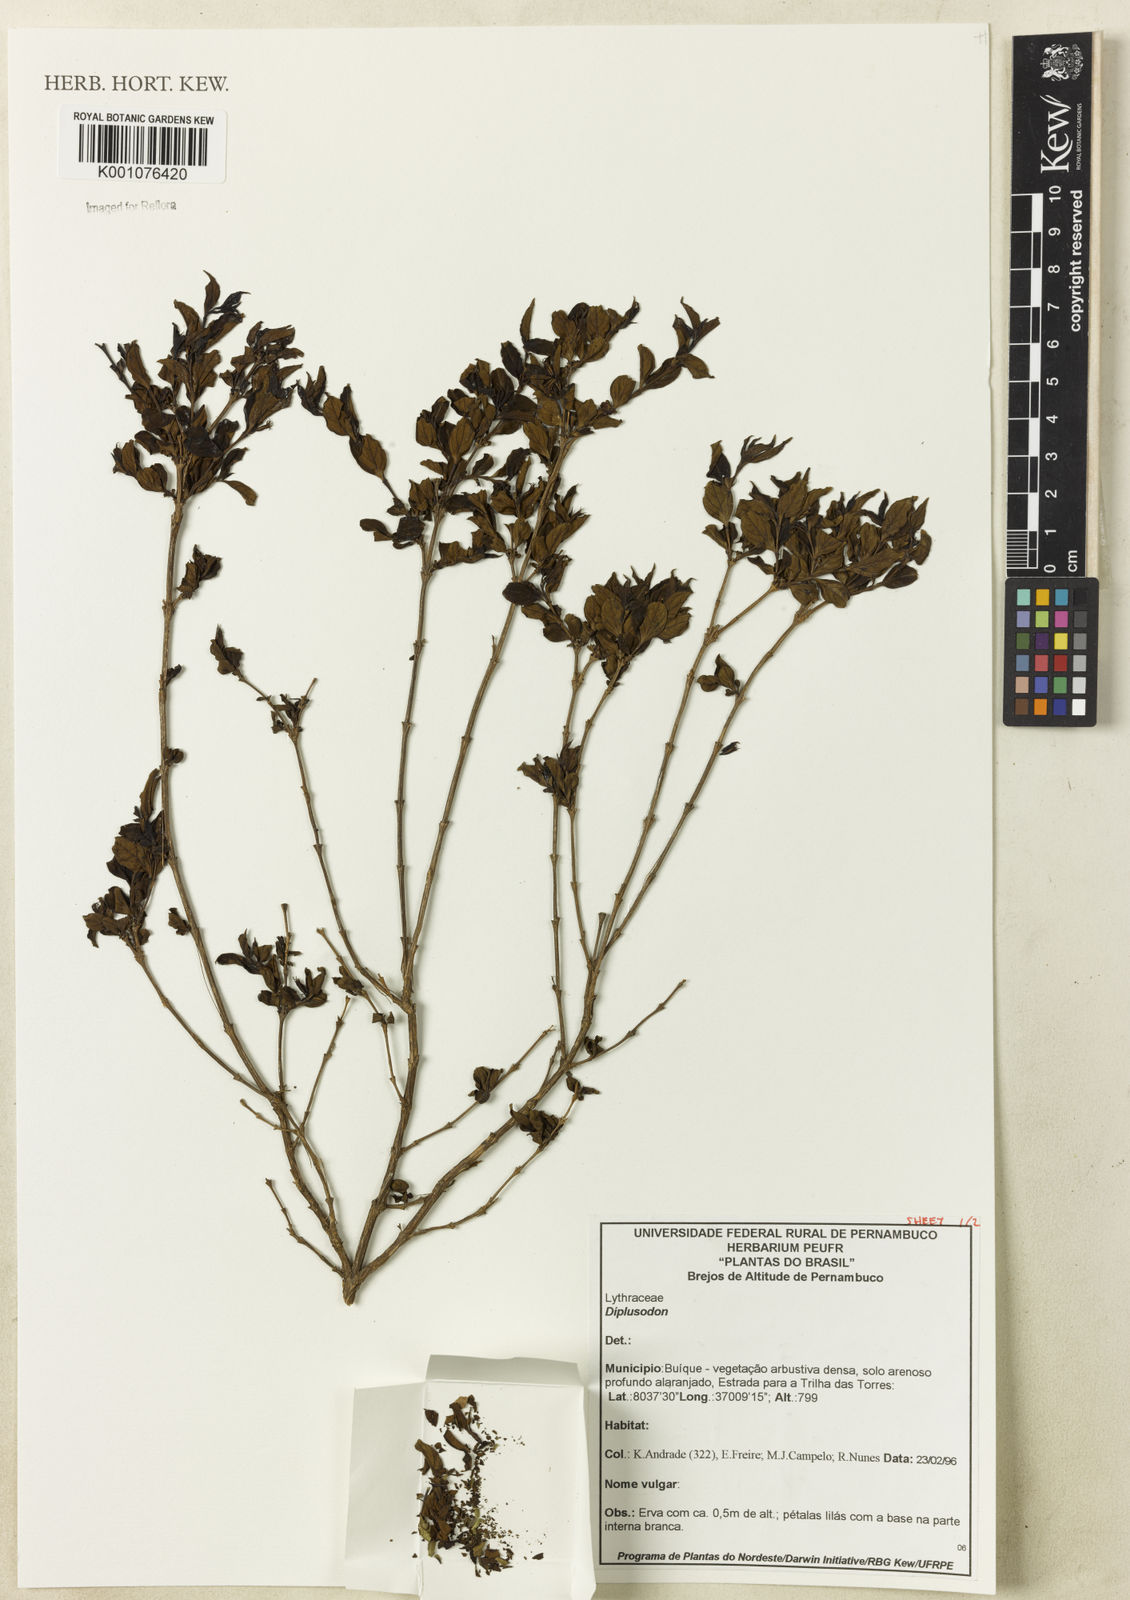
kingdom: Plantae
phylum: Tracheophyta
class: Magnoliopsida
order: Myrtales
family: Lythraceae
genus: Diplusodon
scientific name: Diplusodon
